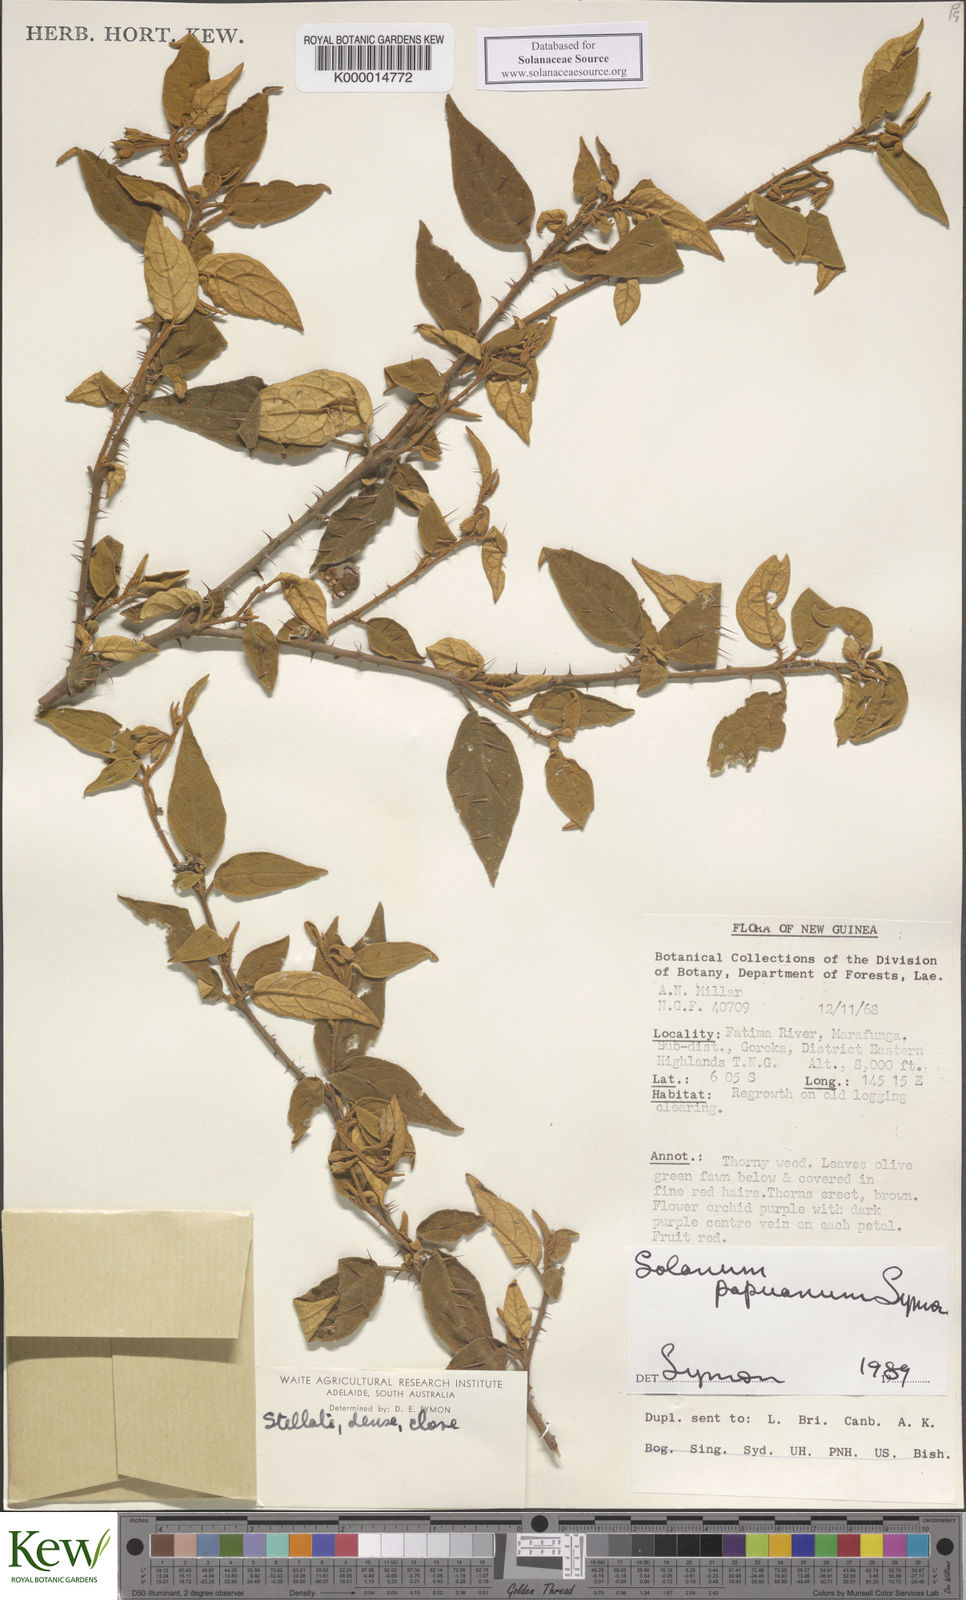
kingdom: Plantae
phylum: Tracheophyta
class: Magnoliopsida
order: Solanales
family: Solanaceae
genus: Solanum
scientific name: Solanum papuanum
